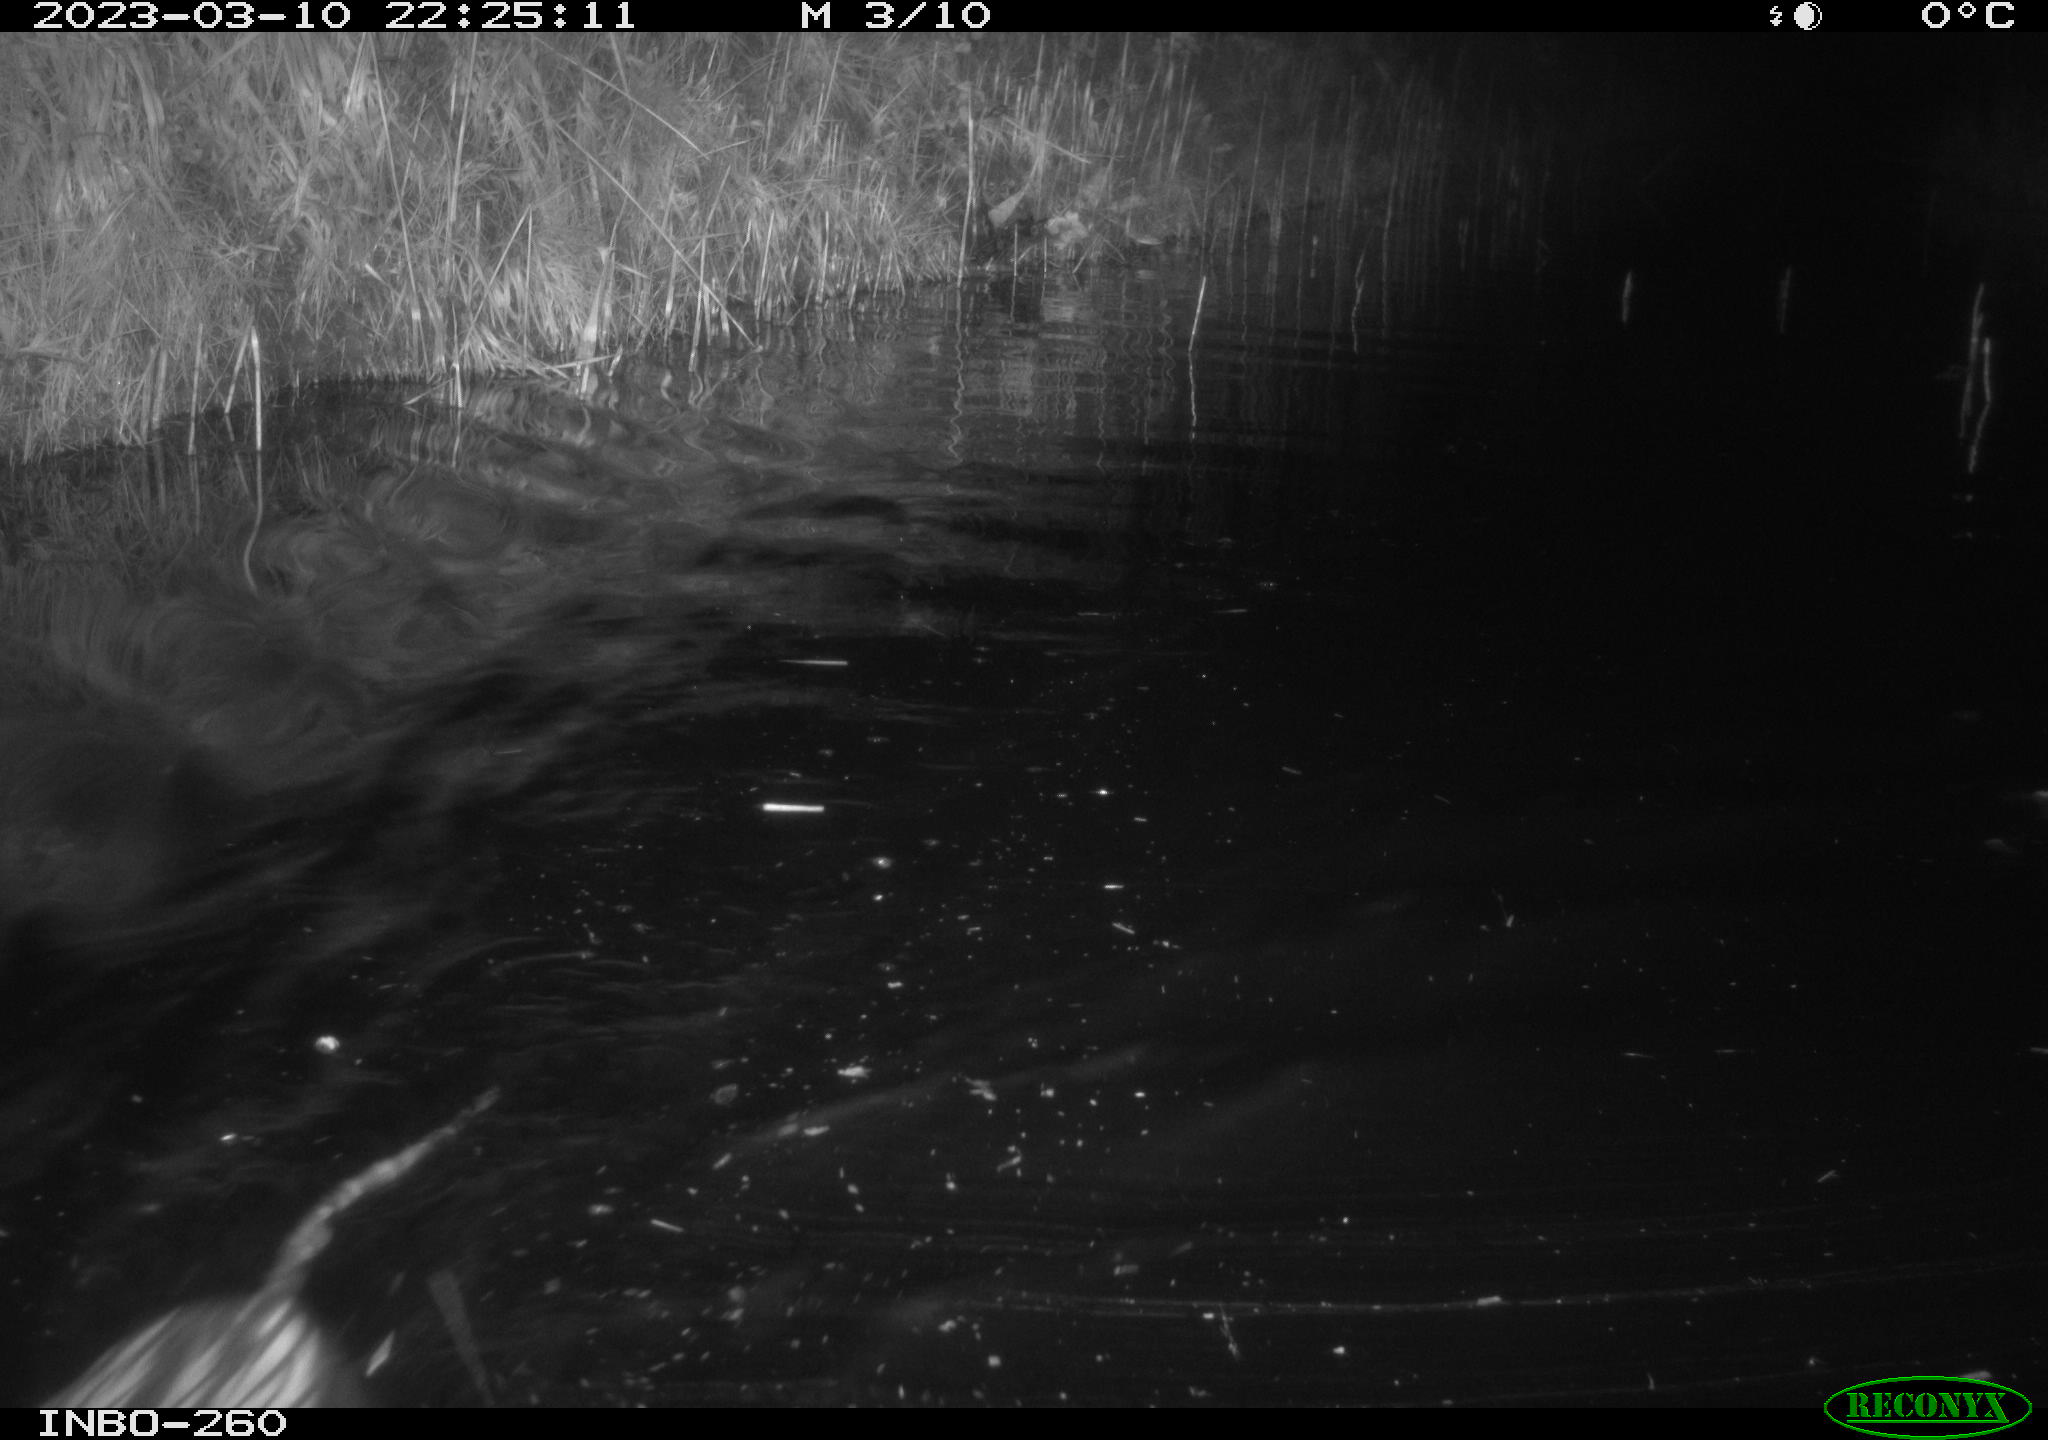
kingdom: Animalia
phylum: Chordata
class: Mammalia
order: Rodentia
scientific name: Rodentia
